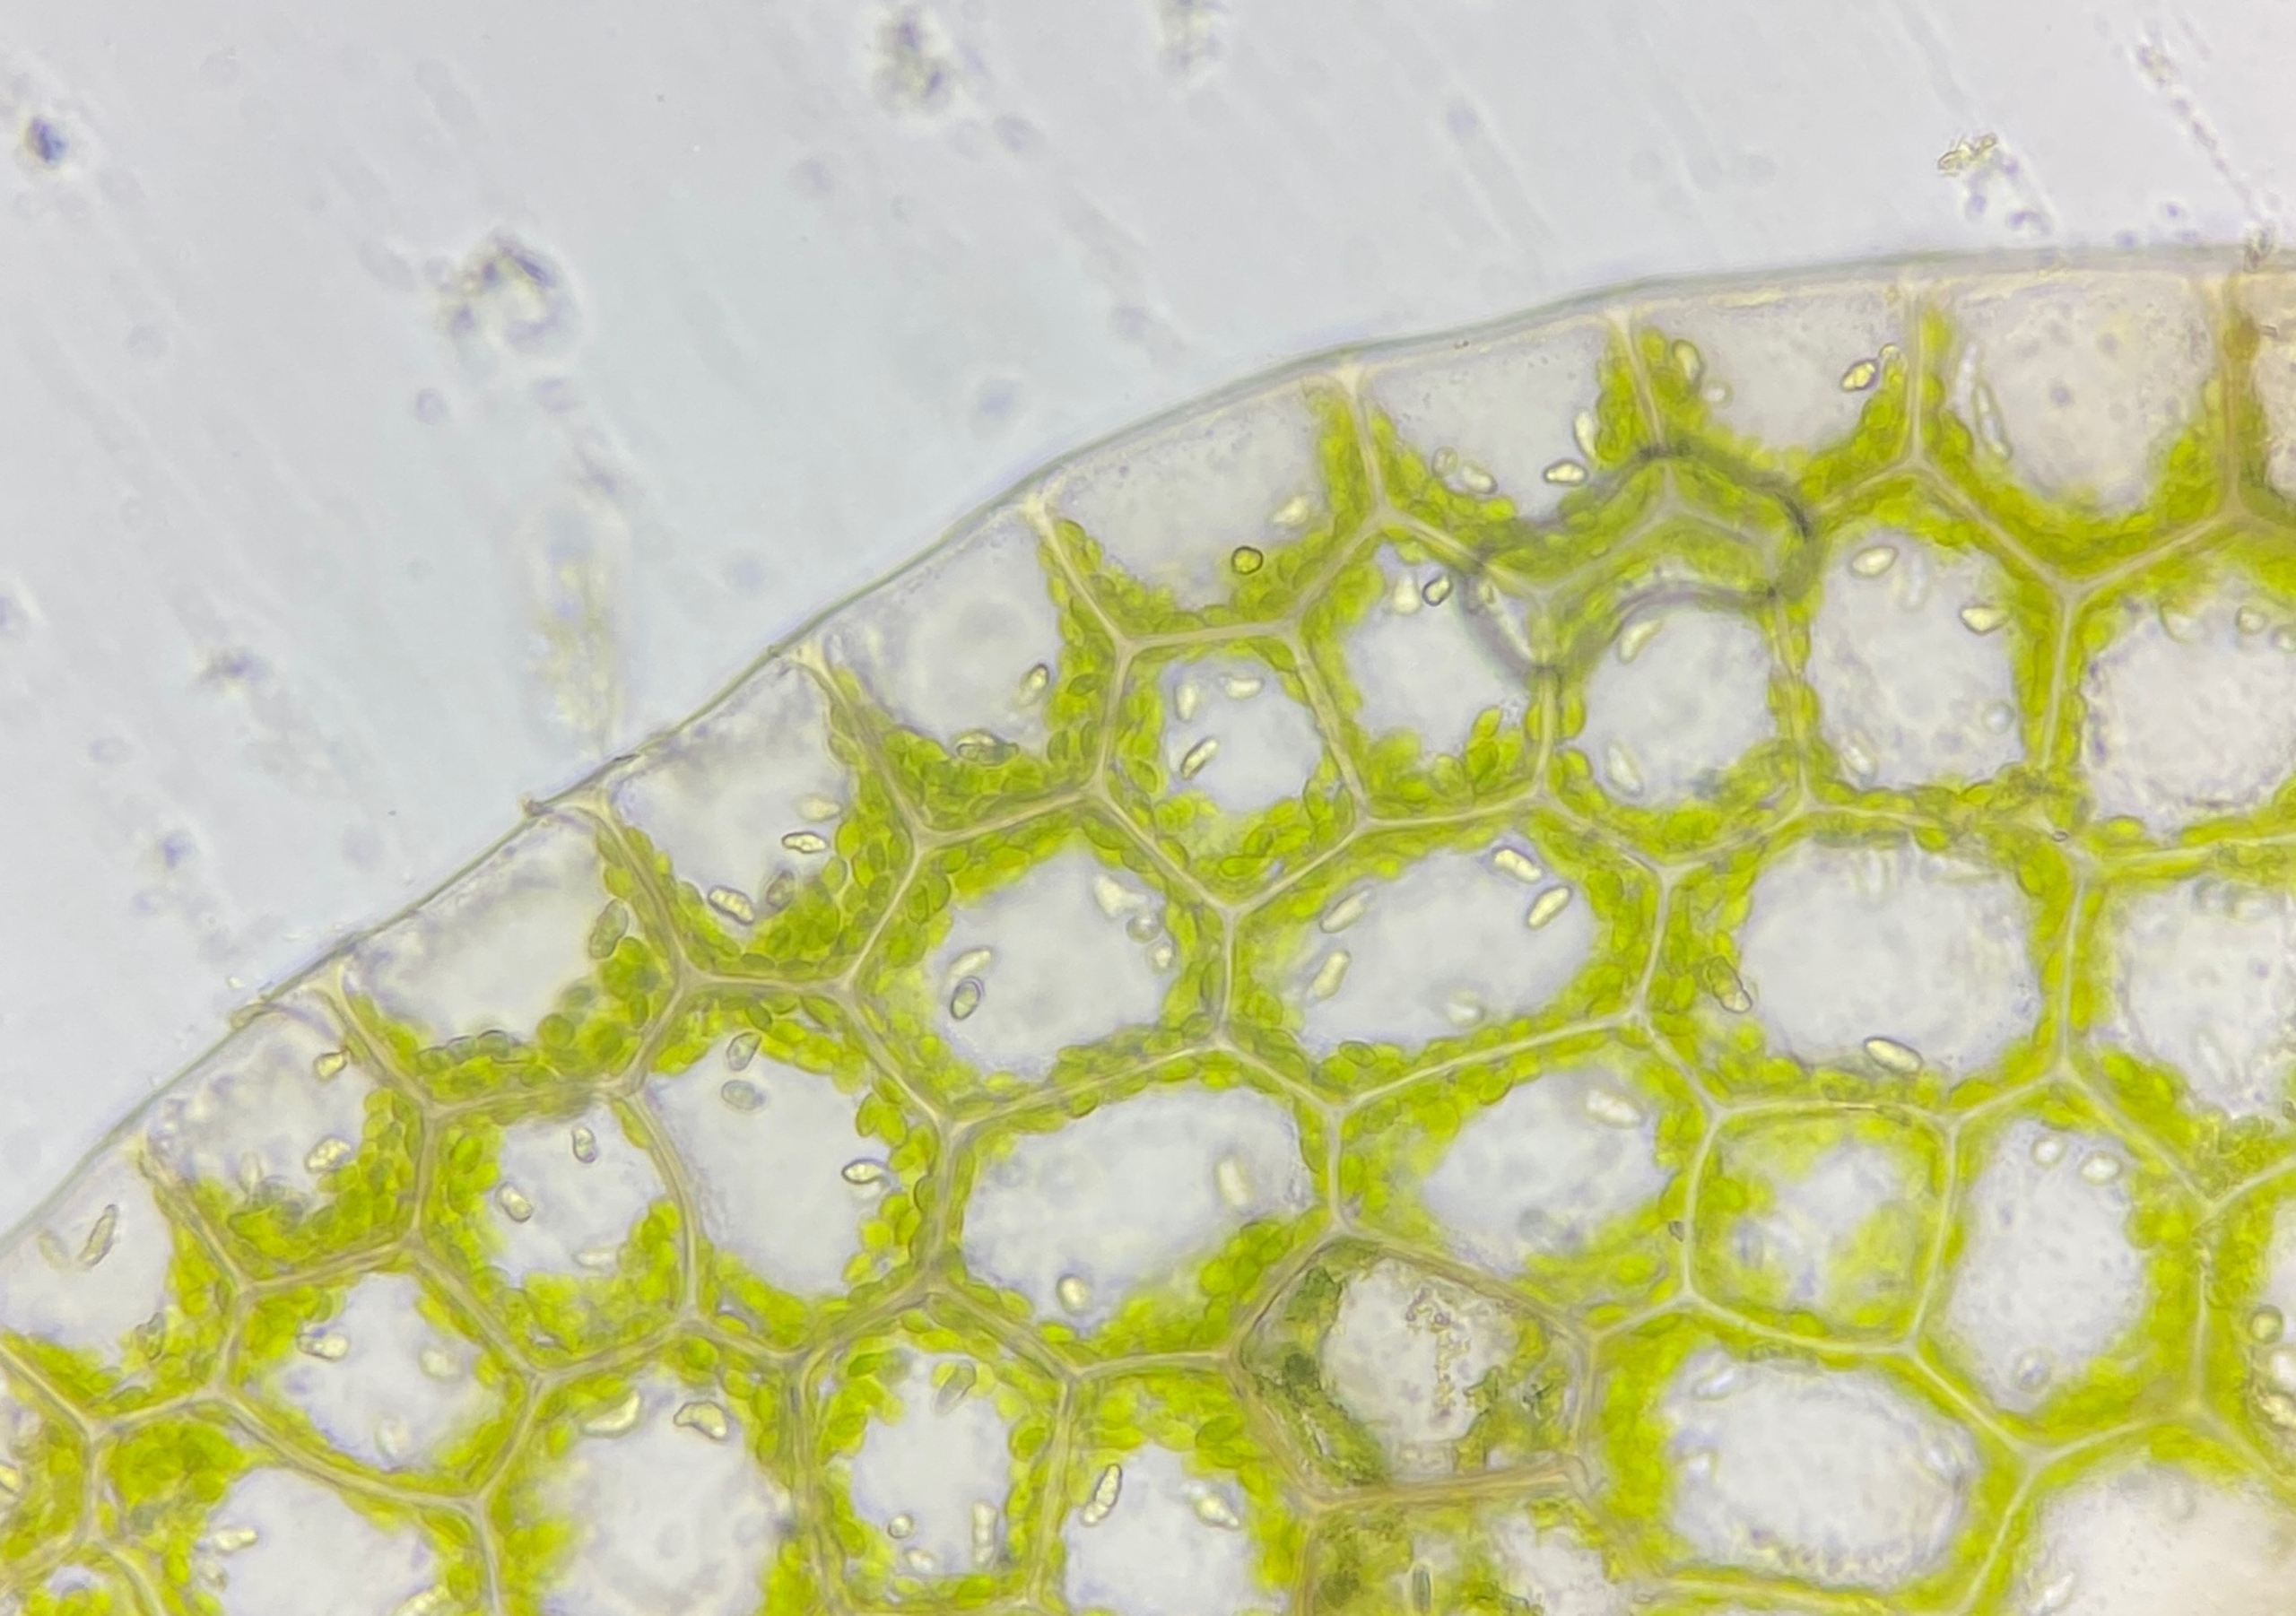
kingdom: Plantae
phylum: Marchantiophyta
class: Jungermanniopsida
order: Jungermanniales
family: Calypogeiaceae
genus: Calypogeia
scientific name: Calypogeia muelleriana
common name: Almindelig sækmos
